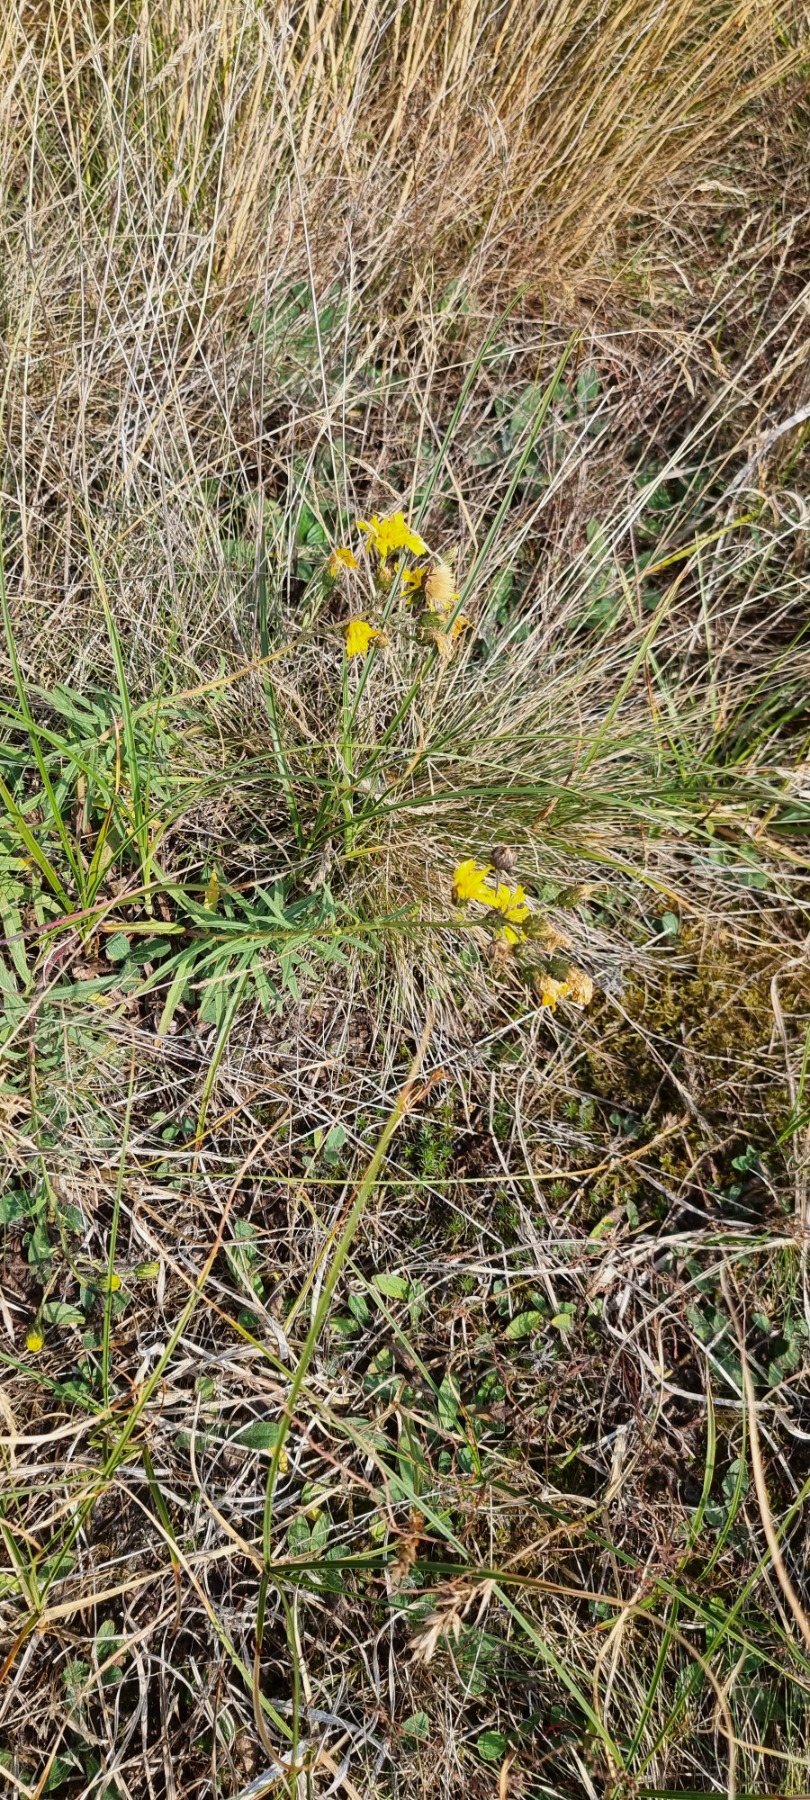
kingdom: Plantae
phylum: Tracheophyta
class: Magnoliopsida
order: Asterales
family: Asteraceae
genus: Hieracium
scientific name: Hieracium umbellatum
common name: Smalbladet høgeurt
